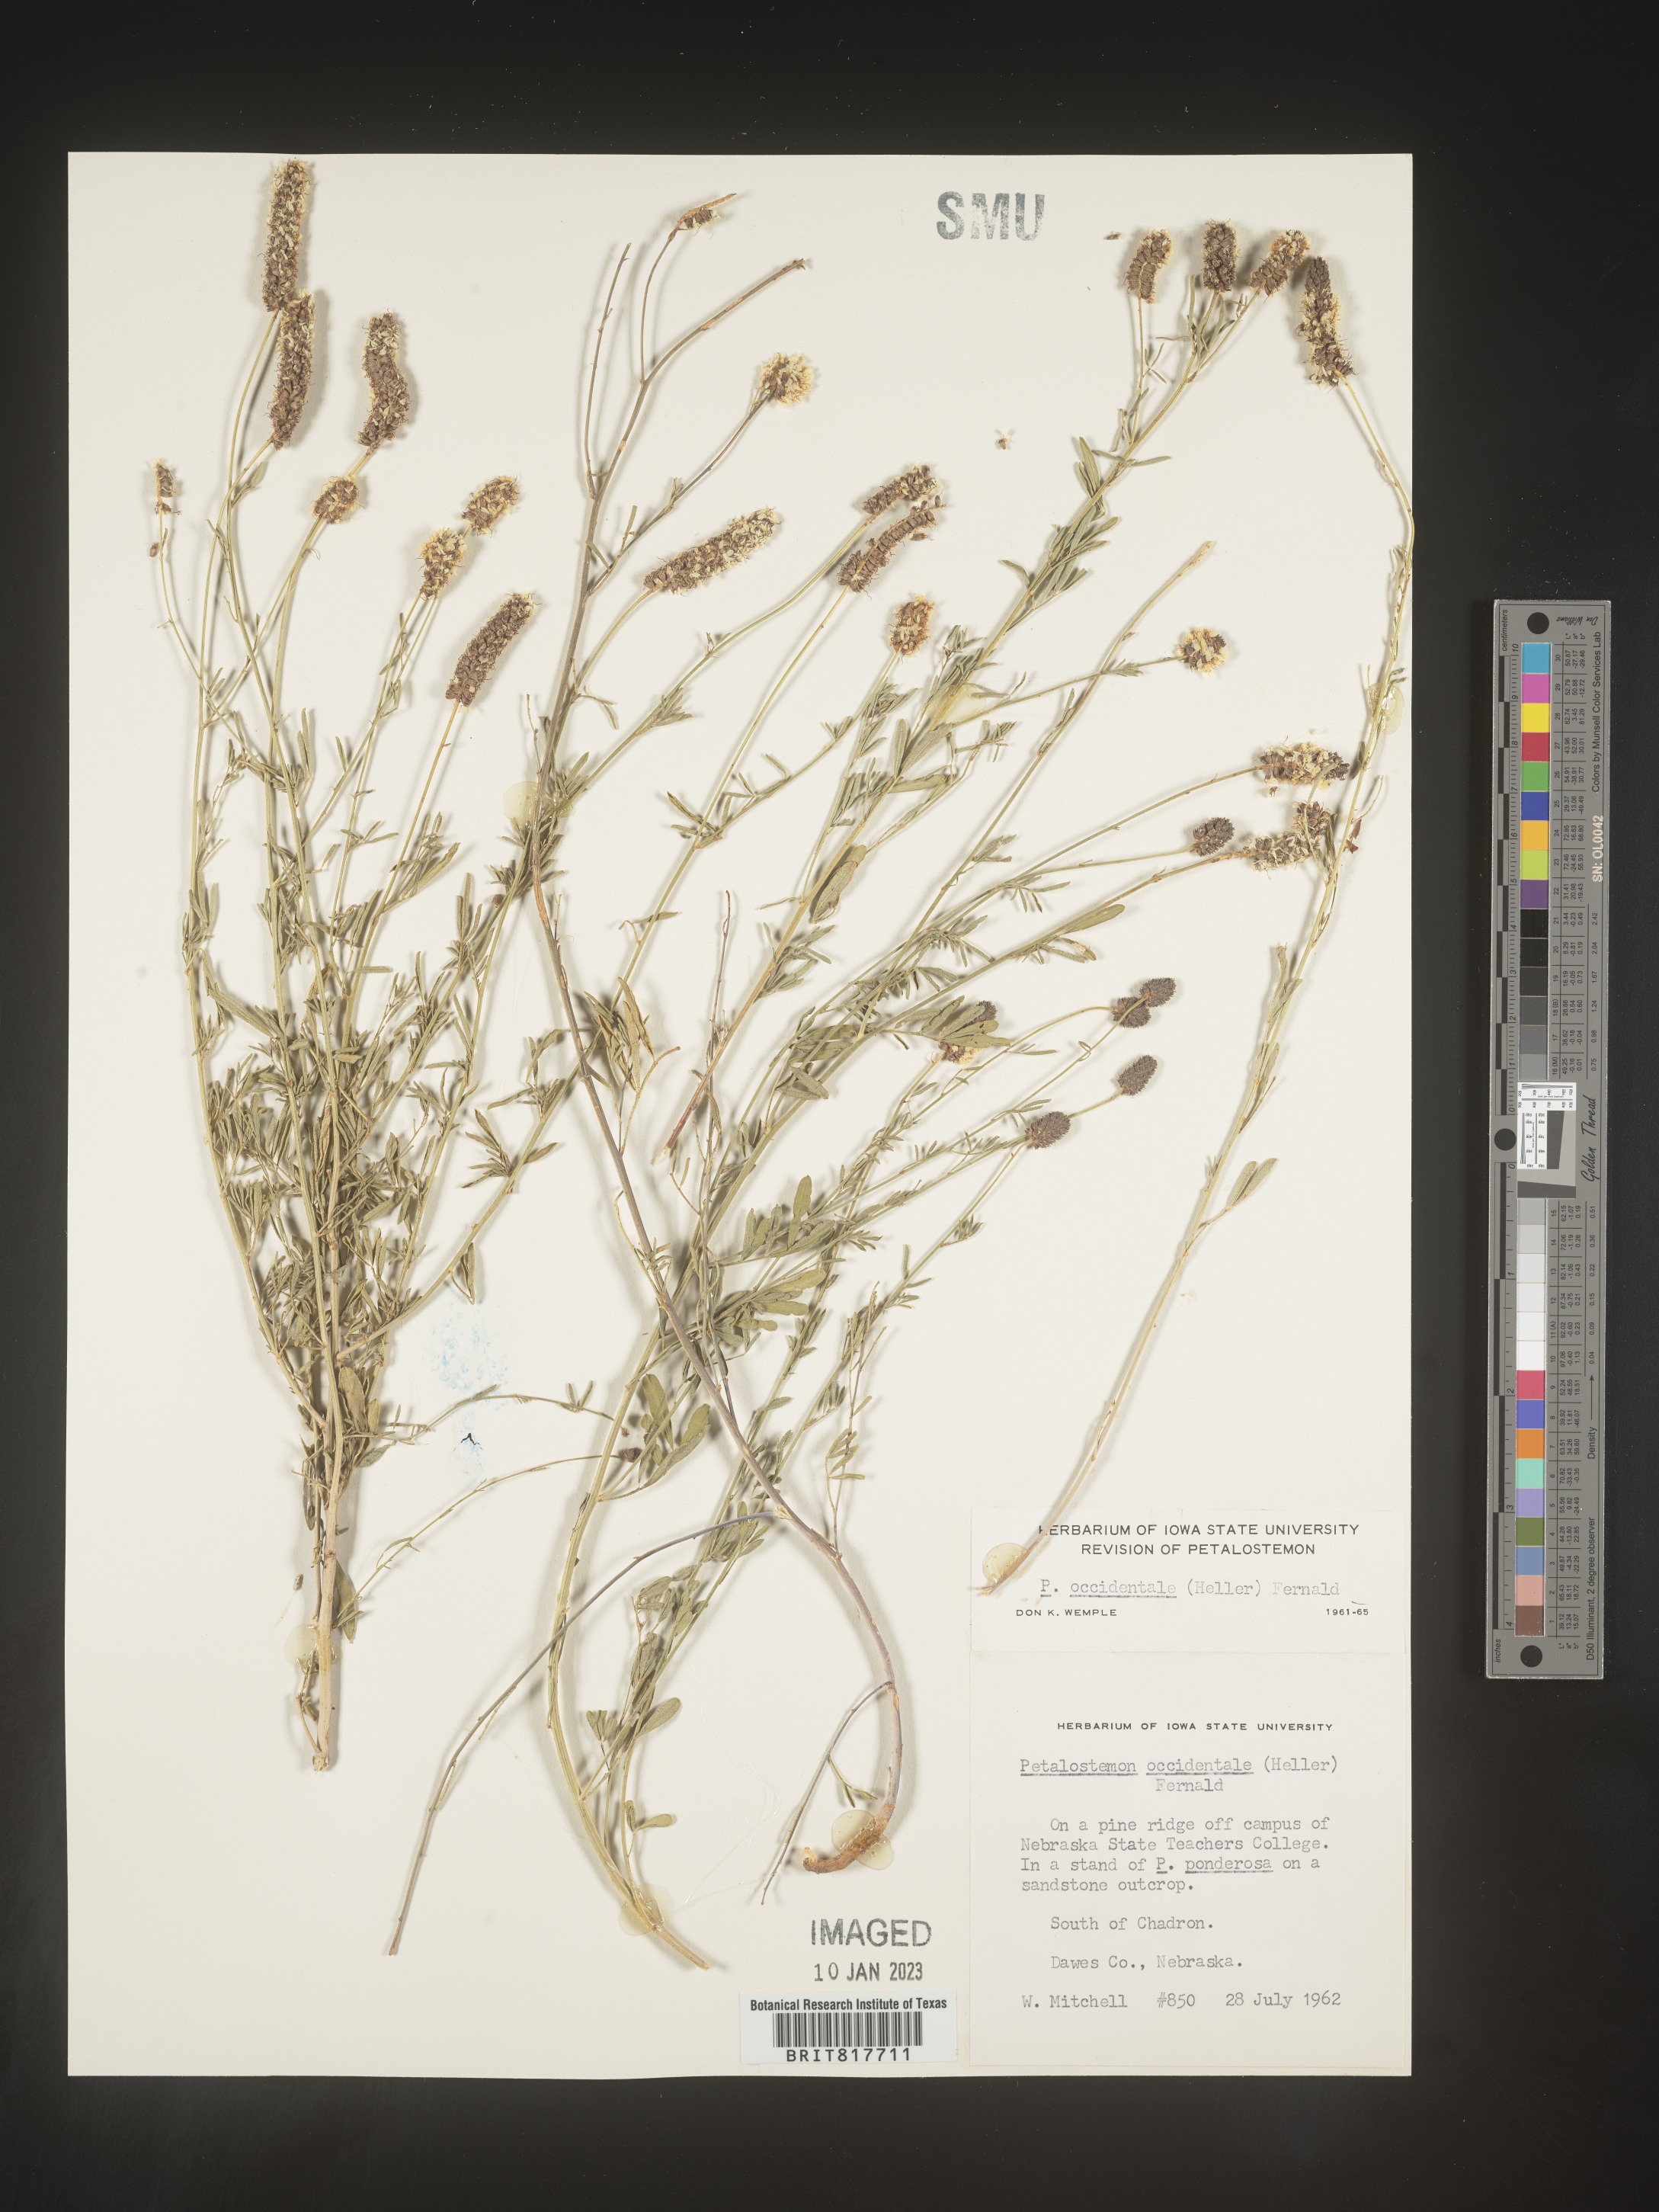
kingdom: Plantae
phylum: Tracheophyta
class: Magnoliopsida
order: Fabales
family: Fabaceae
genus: Dalea
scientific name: Dalea candida
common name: White prairie-clover
